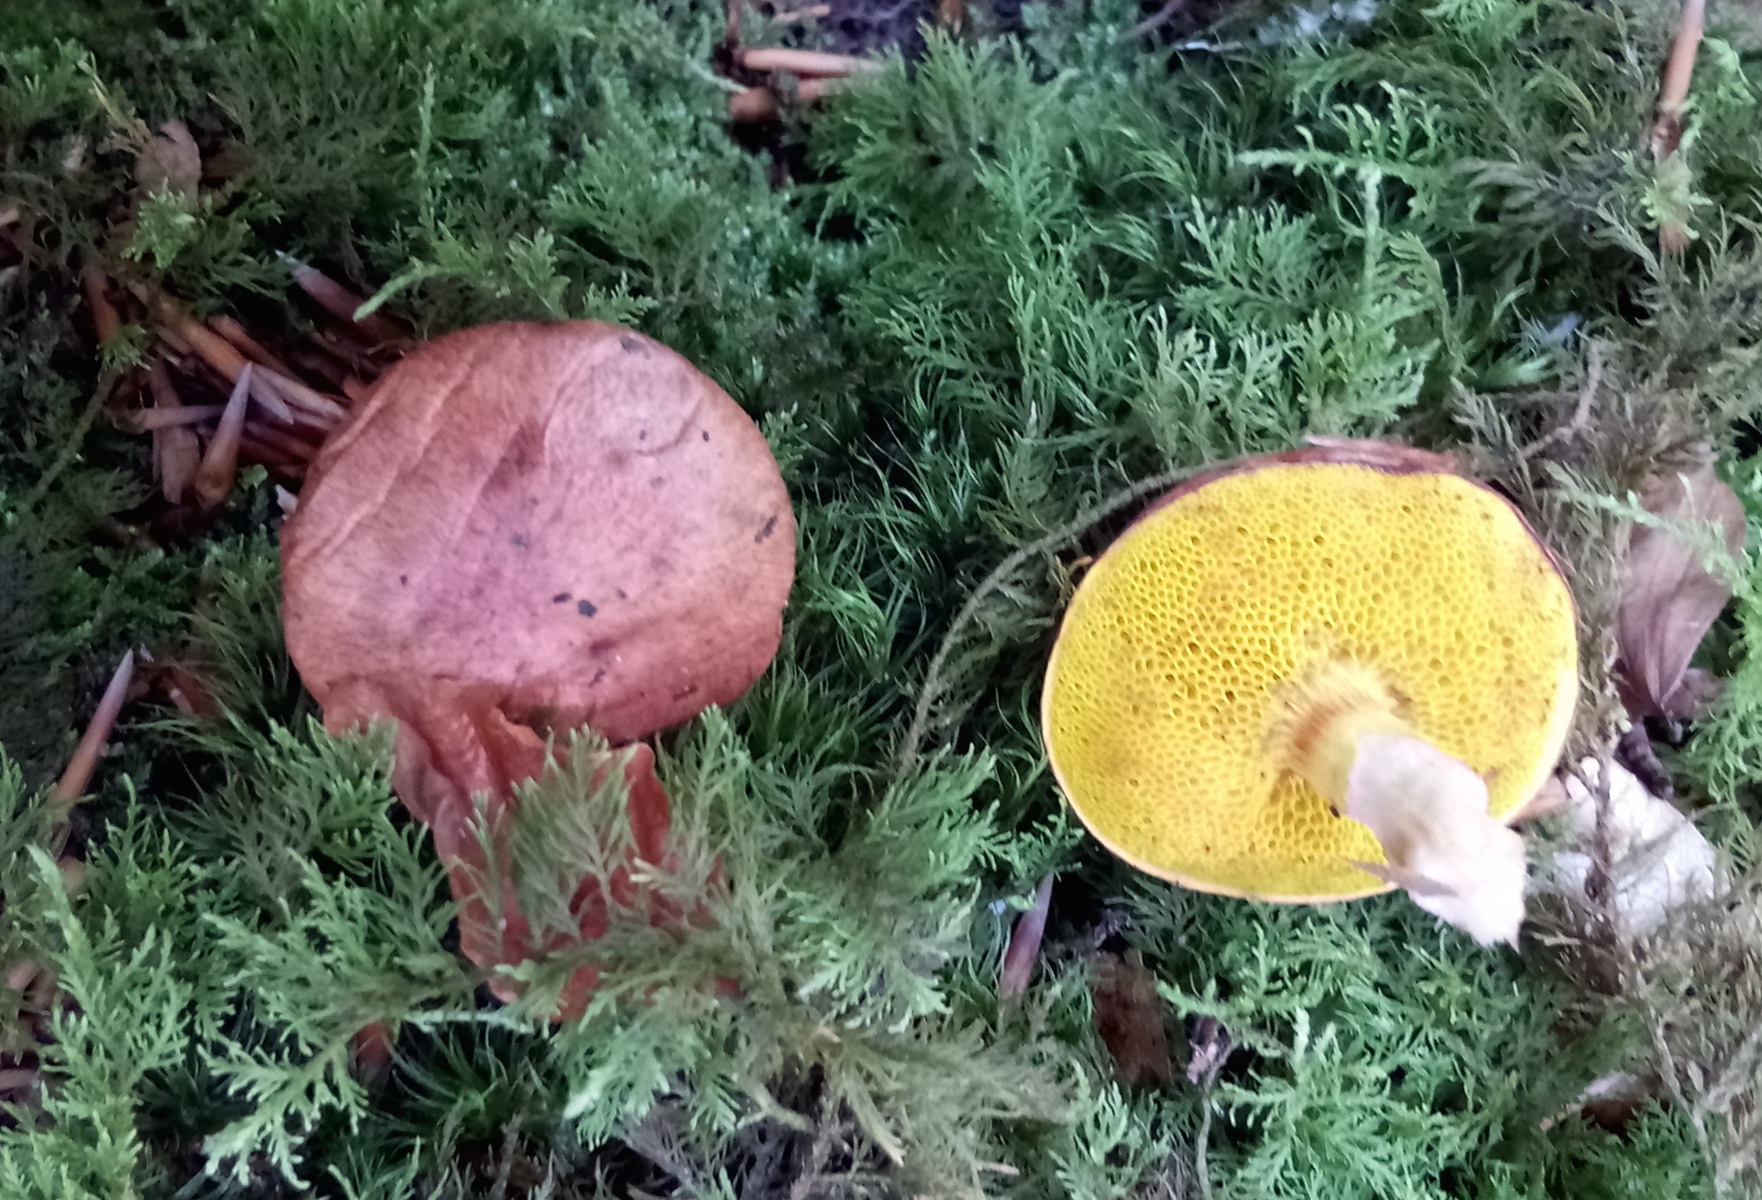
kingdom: Fungi
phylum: Basidiomycota
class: Agaricomycetes
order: Boletales
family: Boletaceae
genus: Aureoboletus
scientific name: Aureoboletus gentilis
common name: guldrørhat
